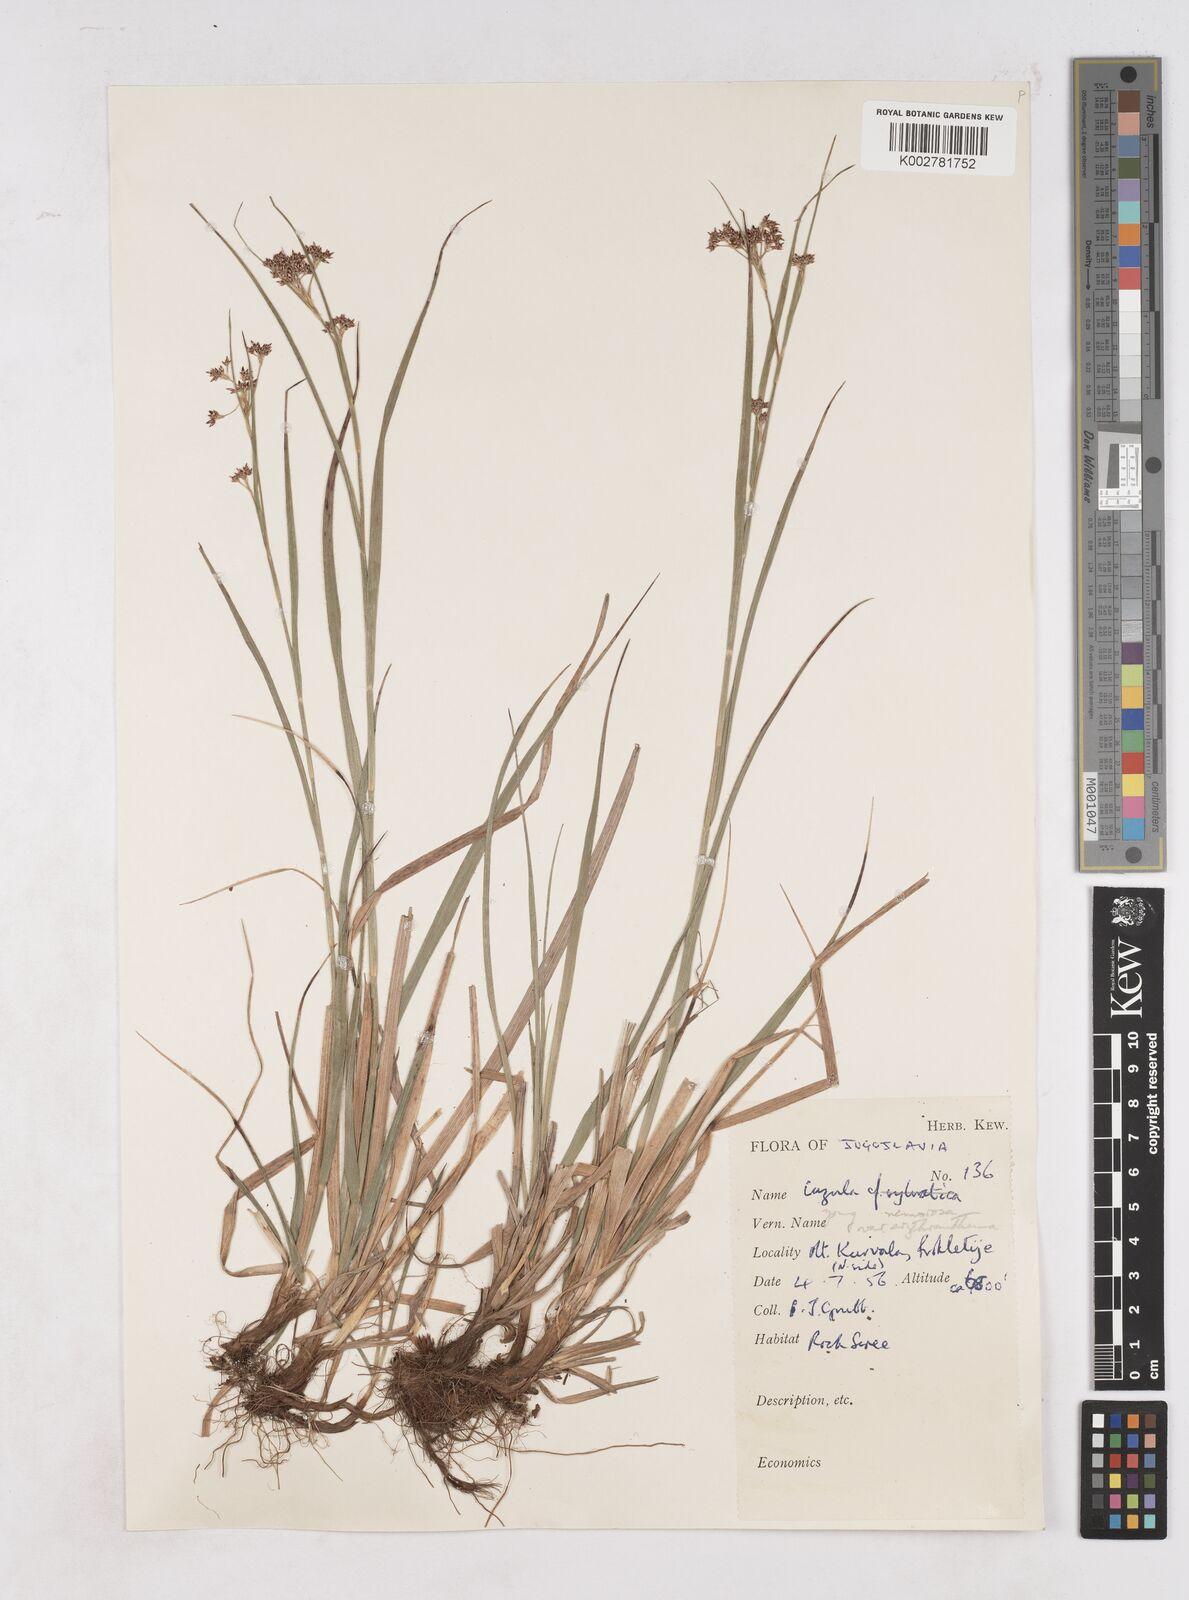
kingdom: Plantae
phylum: Tracheophyta
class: Liliopsida
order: Poales
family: Juncaceae
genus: Luzula
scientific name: Luzula luzuloides
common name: White wood-rush
